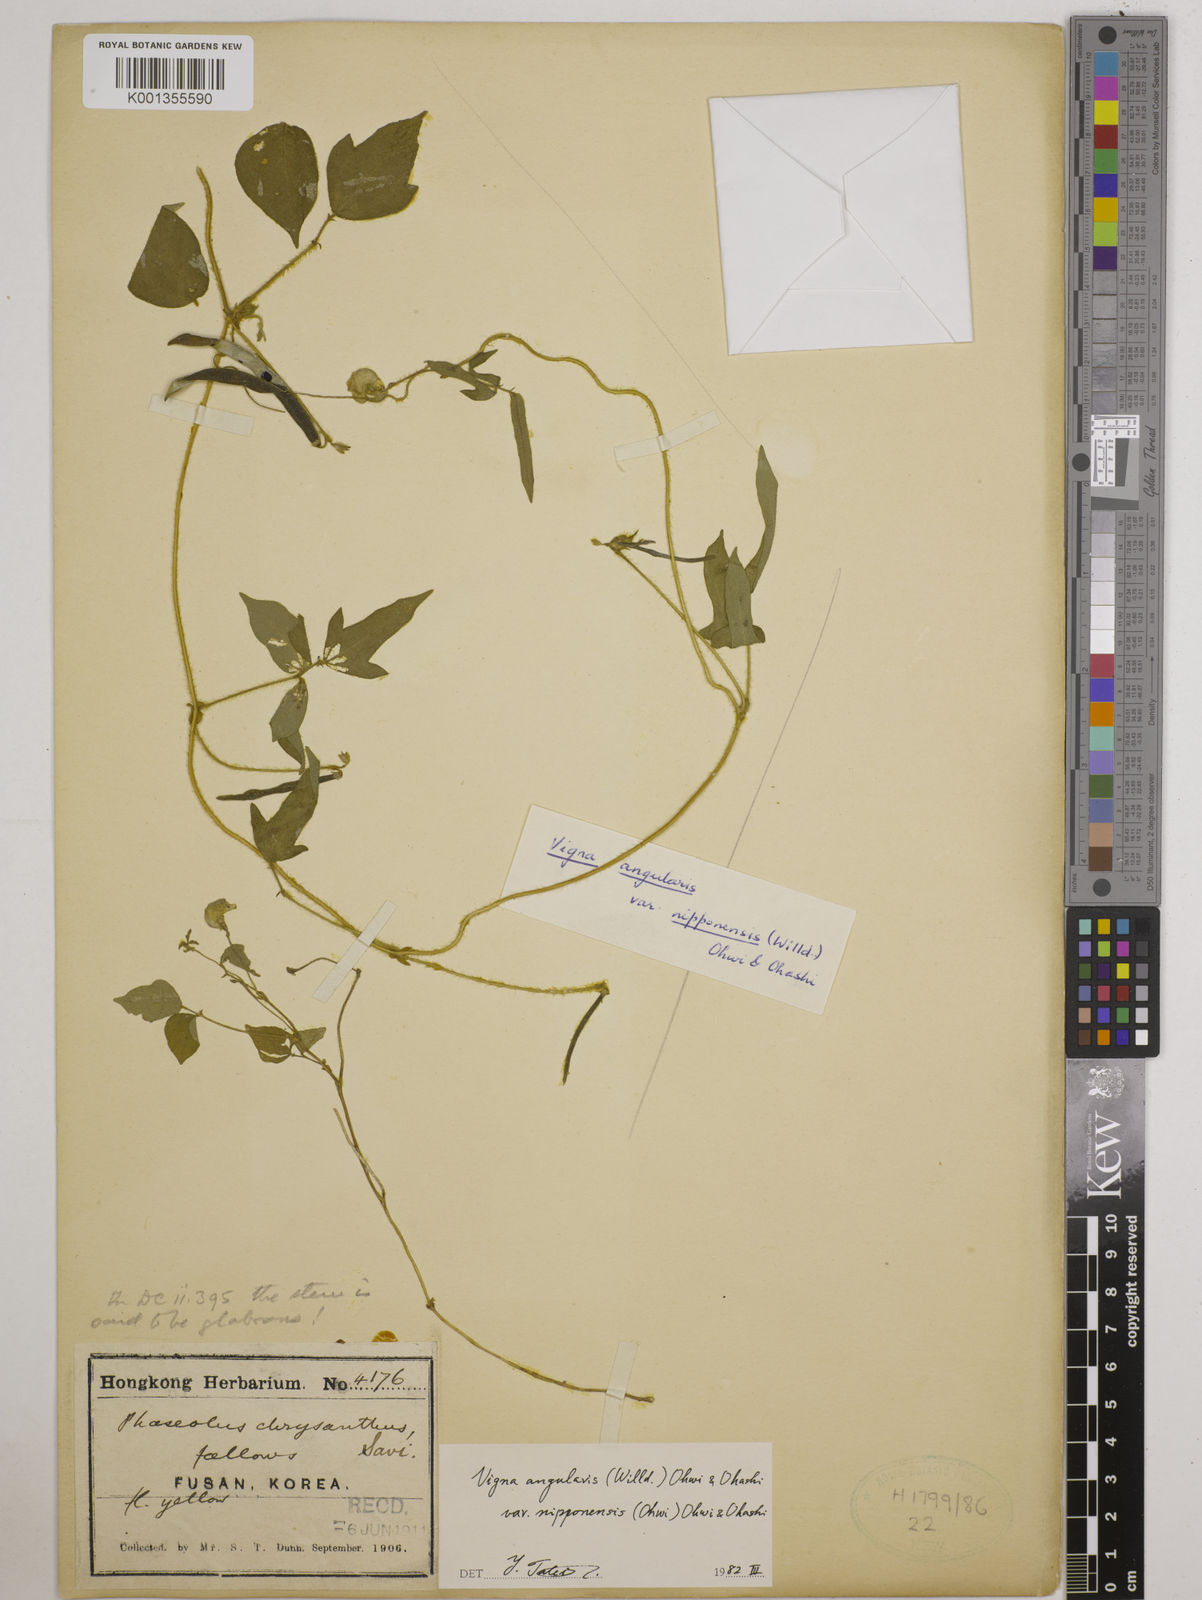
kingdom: Plantae
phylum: Tracheophyta
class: Magnoliopsida
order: Fabales
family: Fabaceae
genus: Vigna
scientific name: Vigna
